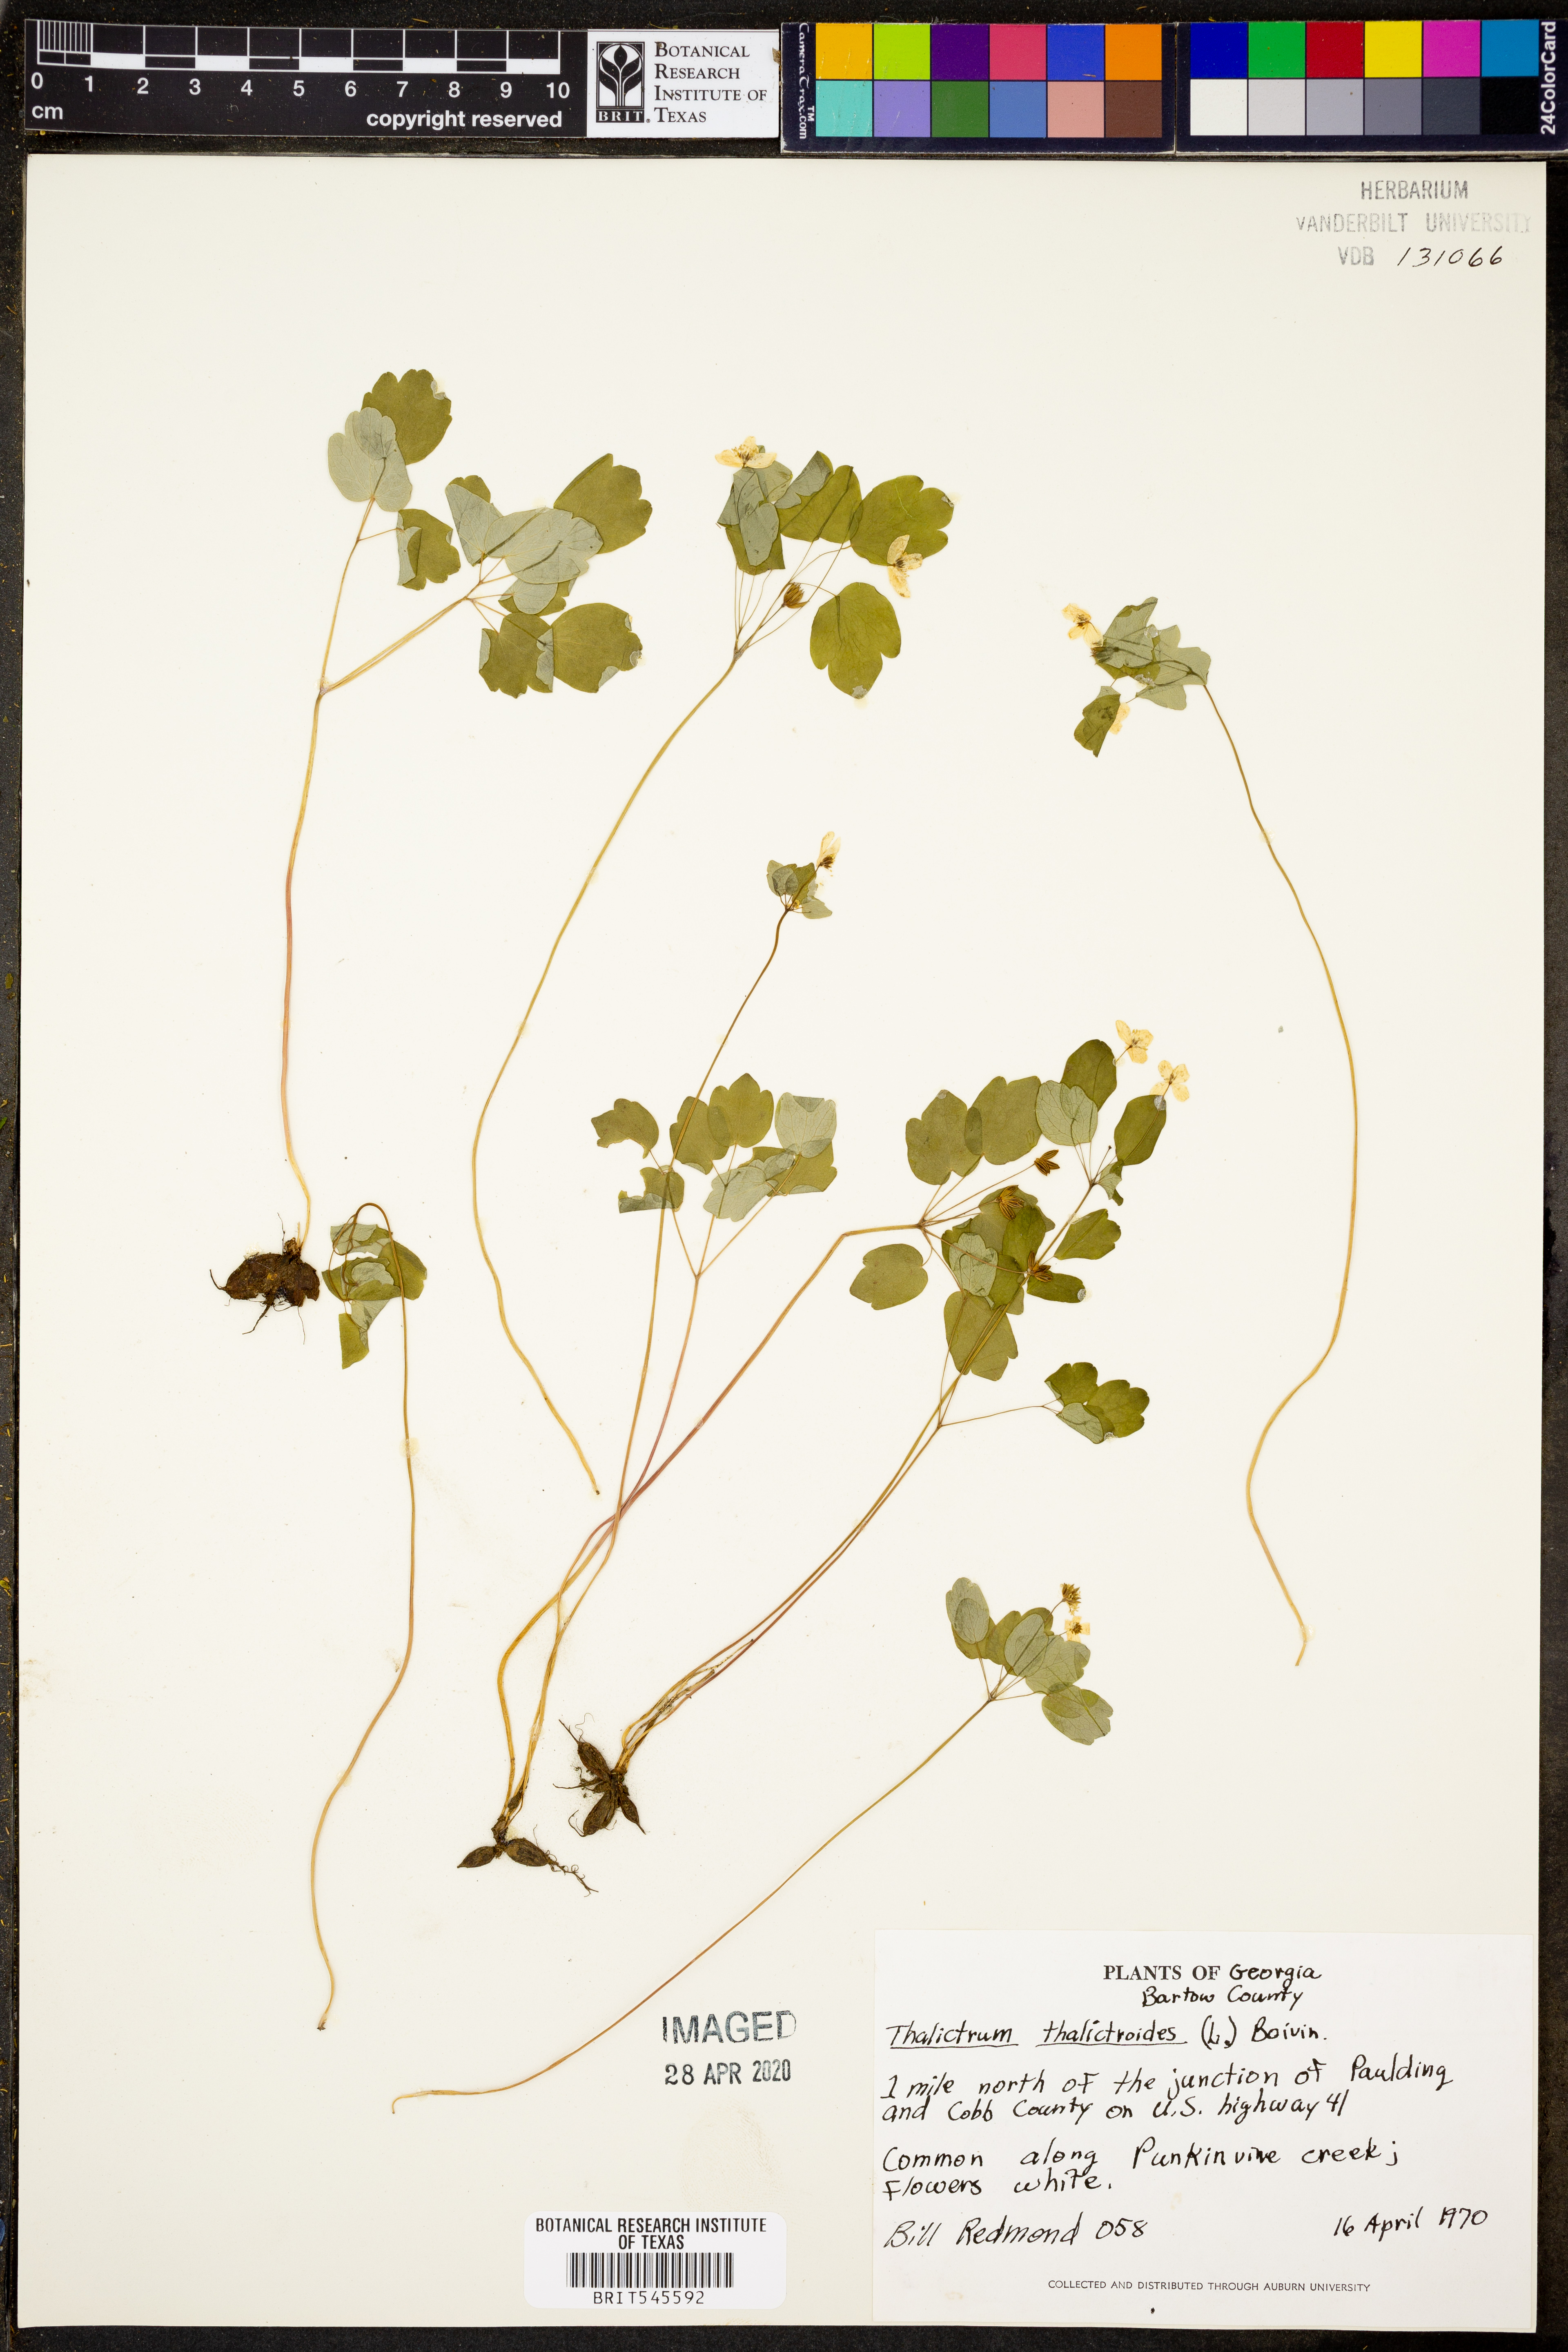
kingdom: Plantae
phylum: Tracheophyta
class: Magnoliopsida
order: Ranunculales
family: Ranunculaceae
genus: Thalictrum
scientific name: Thalictrum thalictroides
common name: Rue-anemone
